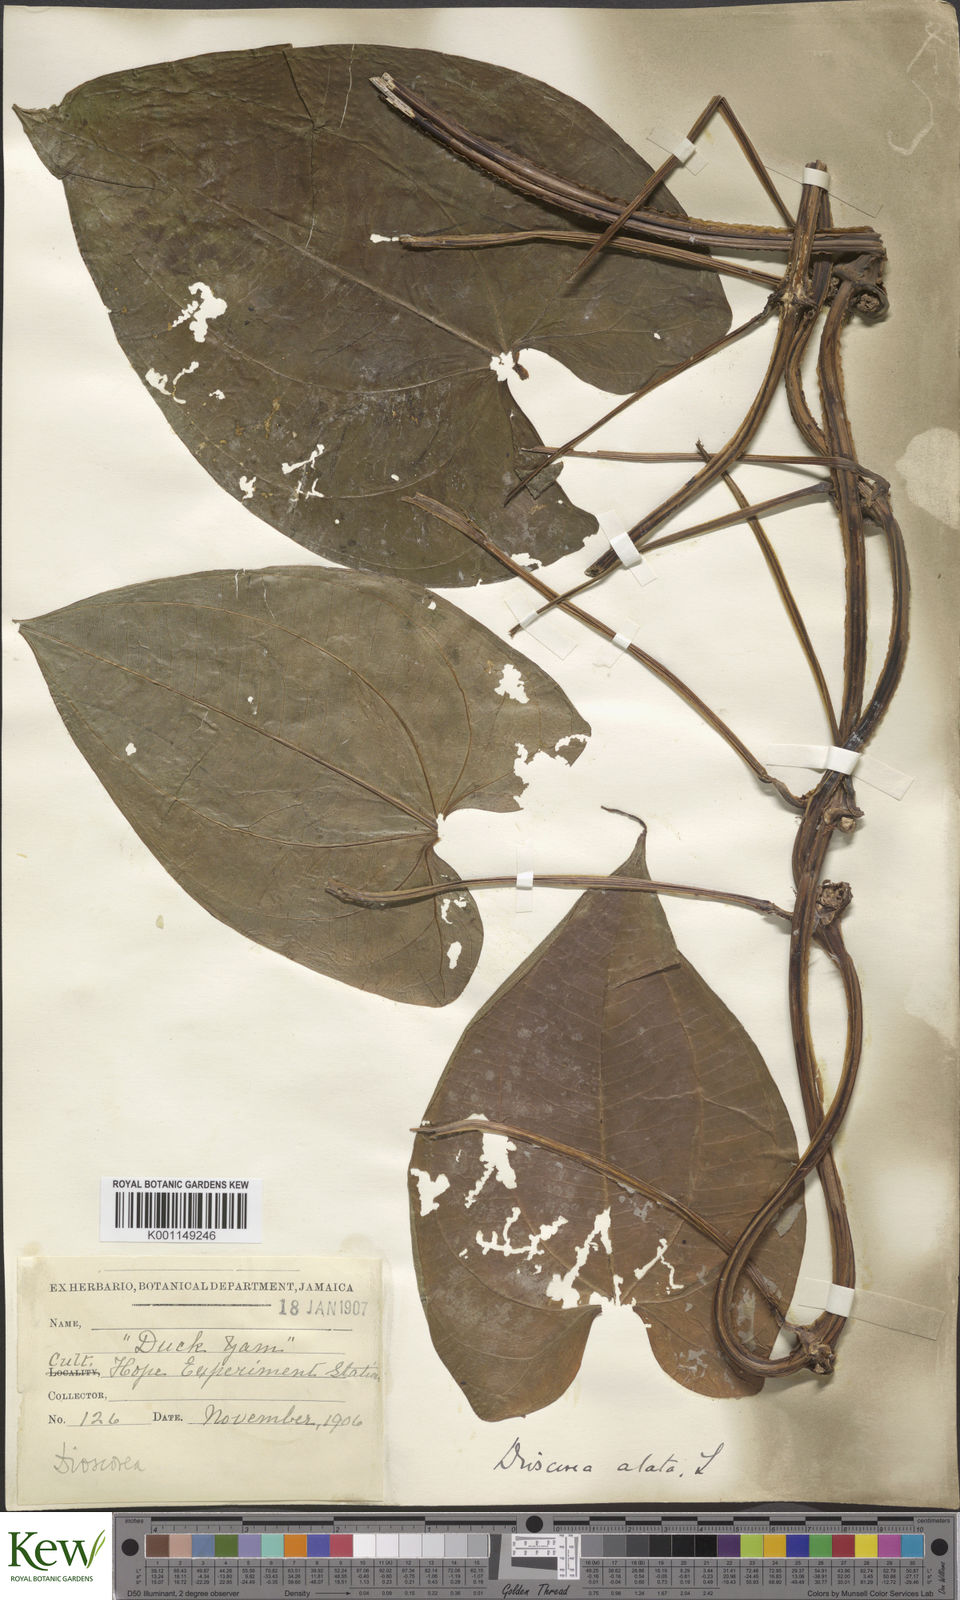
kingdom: Plantae
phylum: Tracheophyta
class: Liliopsida
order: Dioscoreales
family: Dioscoreaceae
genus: Dioscorea
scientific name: Dioscorea alata
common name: Water yam
